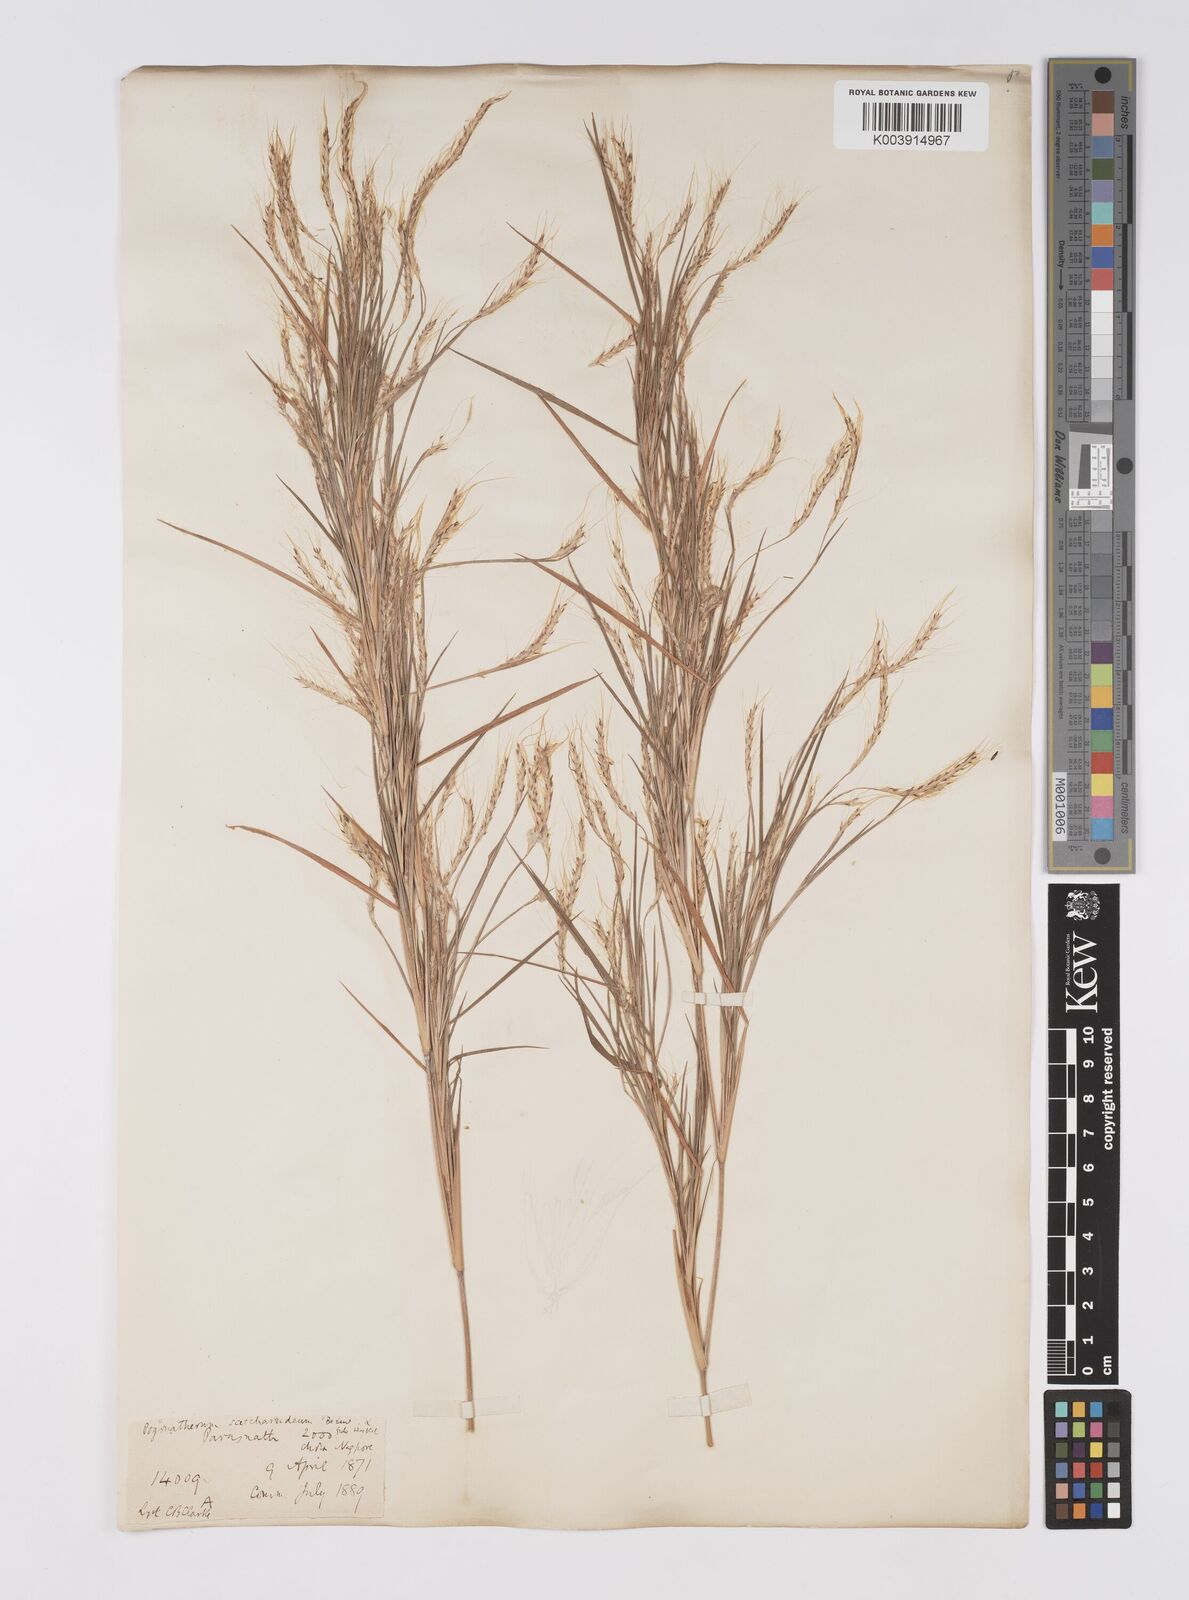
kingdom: Plantae
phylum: Tracheophyta
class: Liliopsida
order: Poales
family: Poaceae
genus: Pogonatherum
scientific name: Pogonatherum paniceum
